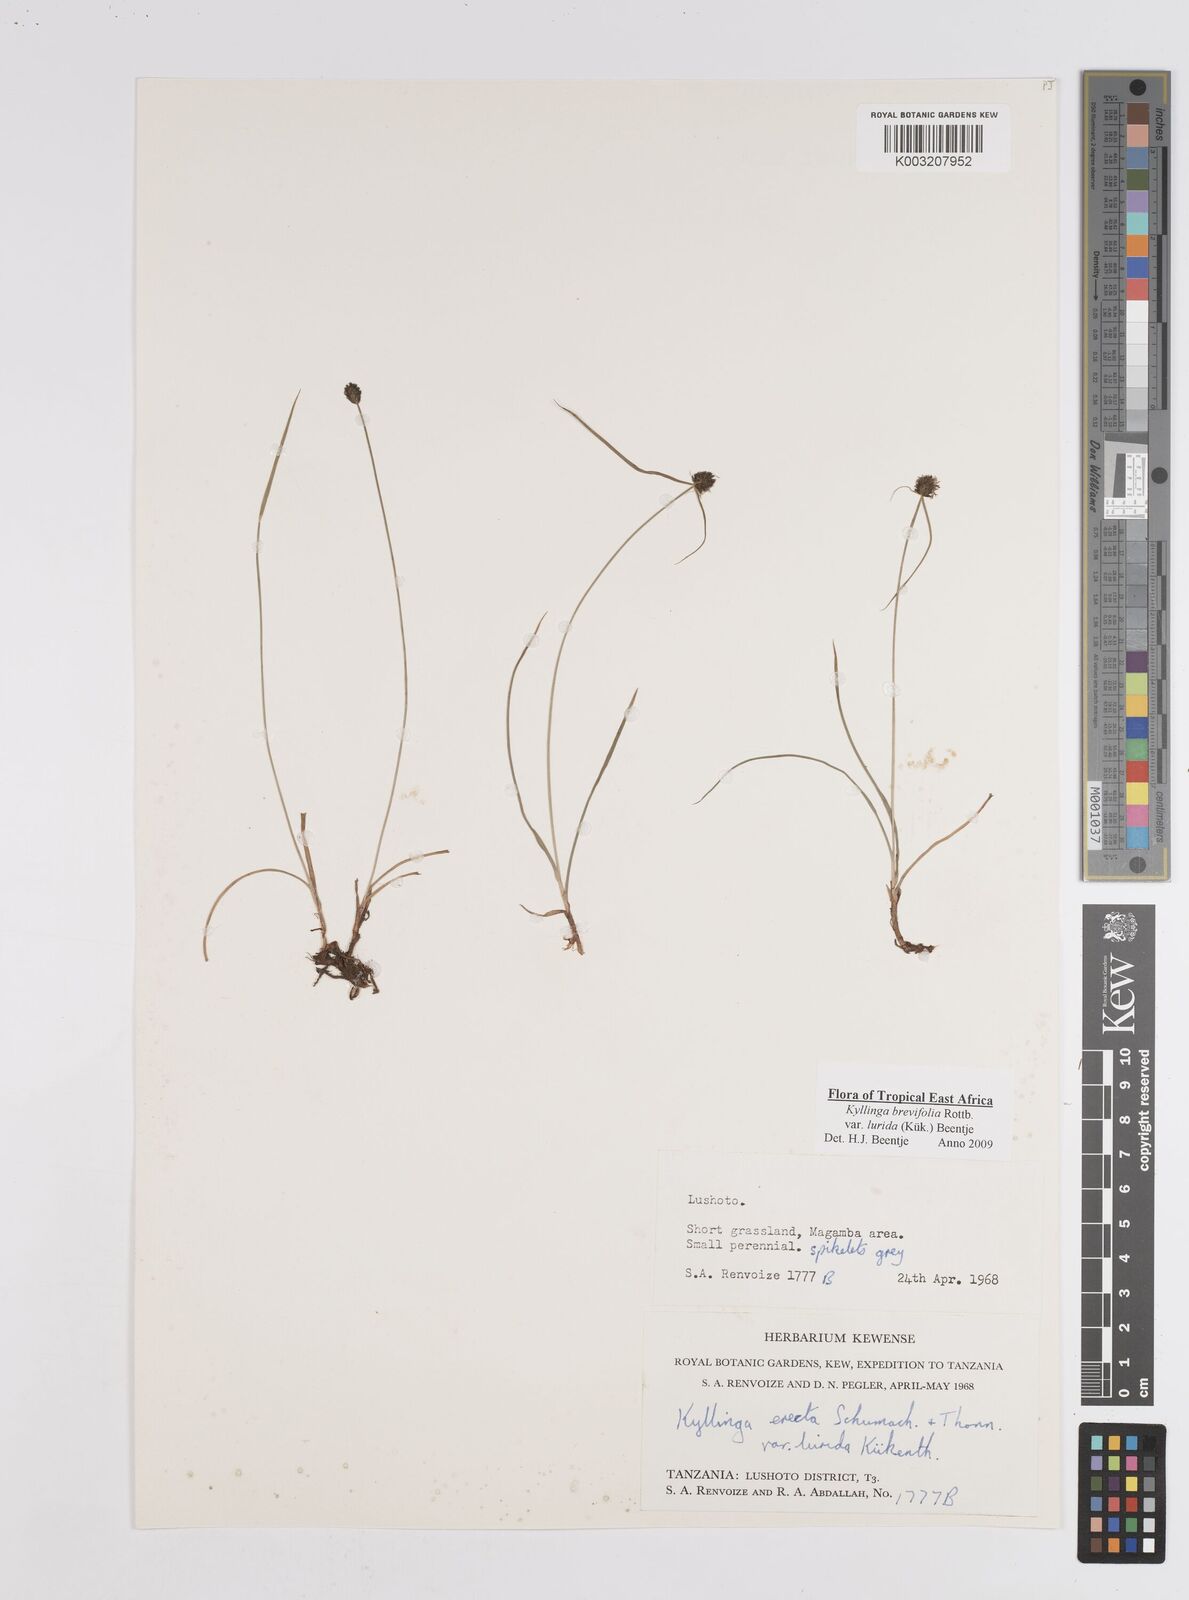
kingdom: Plantae
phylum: Tracheophyta
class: Liliopsida
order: Poales
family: Cyperaceae
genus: Cyperus
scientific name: Cyperus erectus
